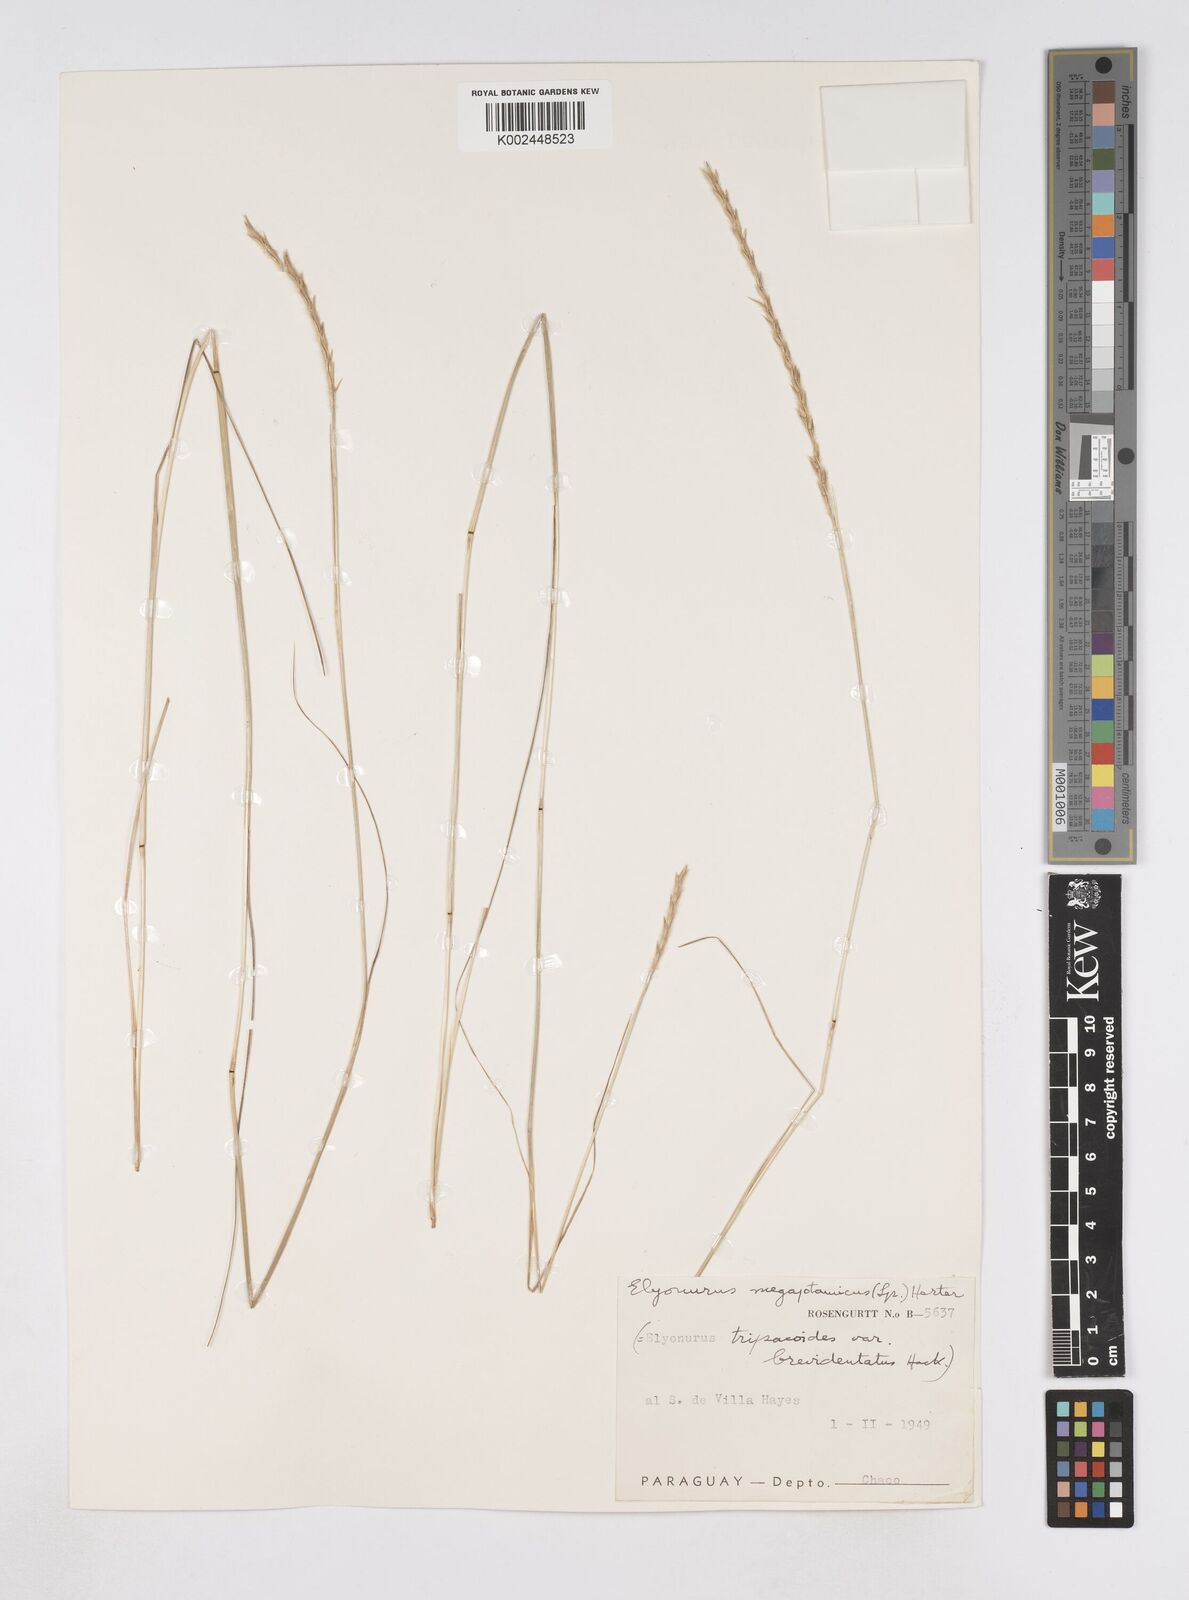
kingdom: Plantae
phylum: Tracheophyta
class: Liliopsida
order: Poales
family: Poaceae
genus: Elionurus
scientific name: Elionurus muticus
